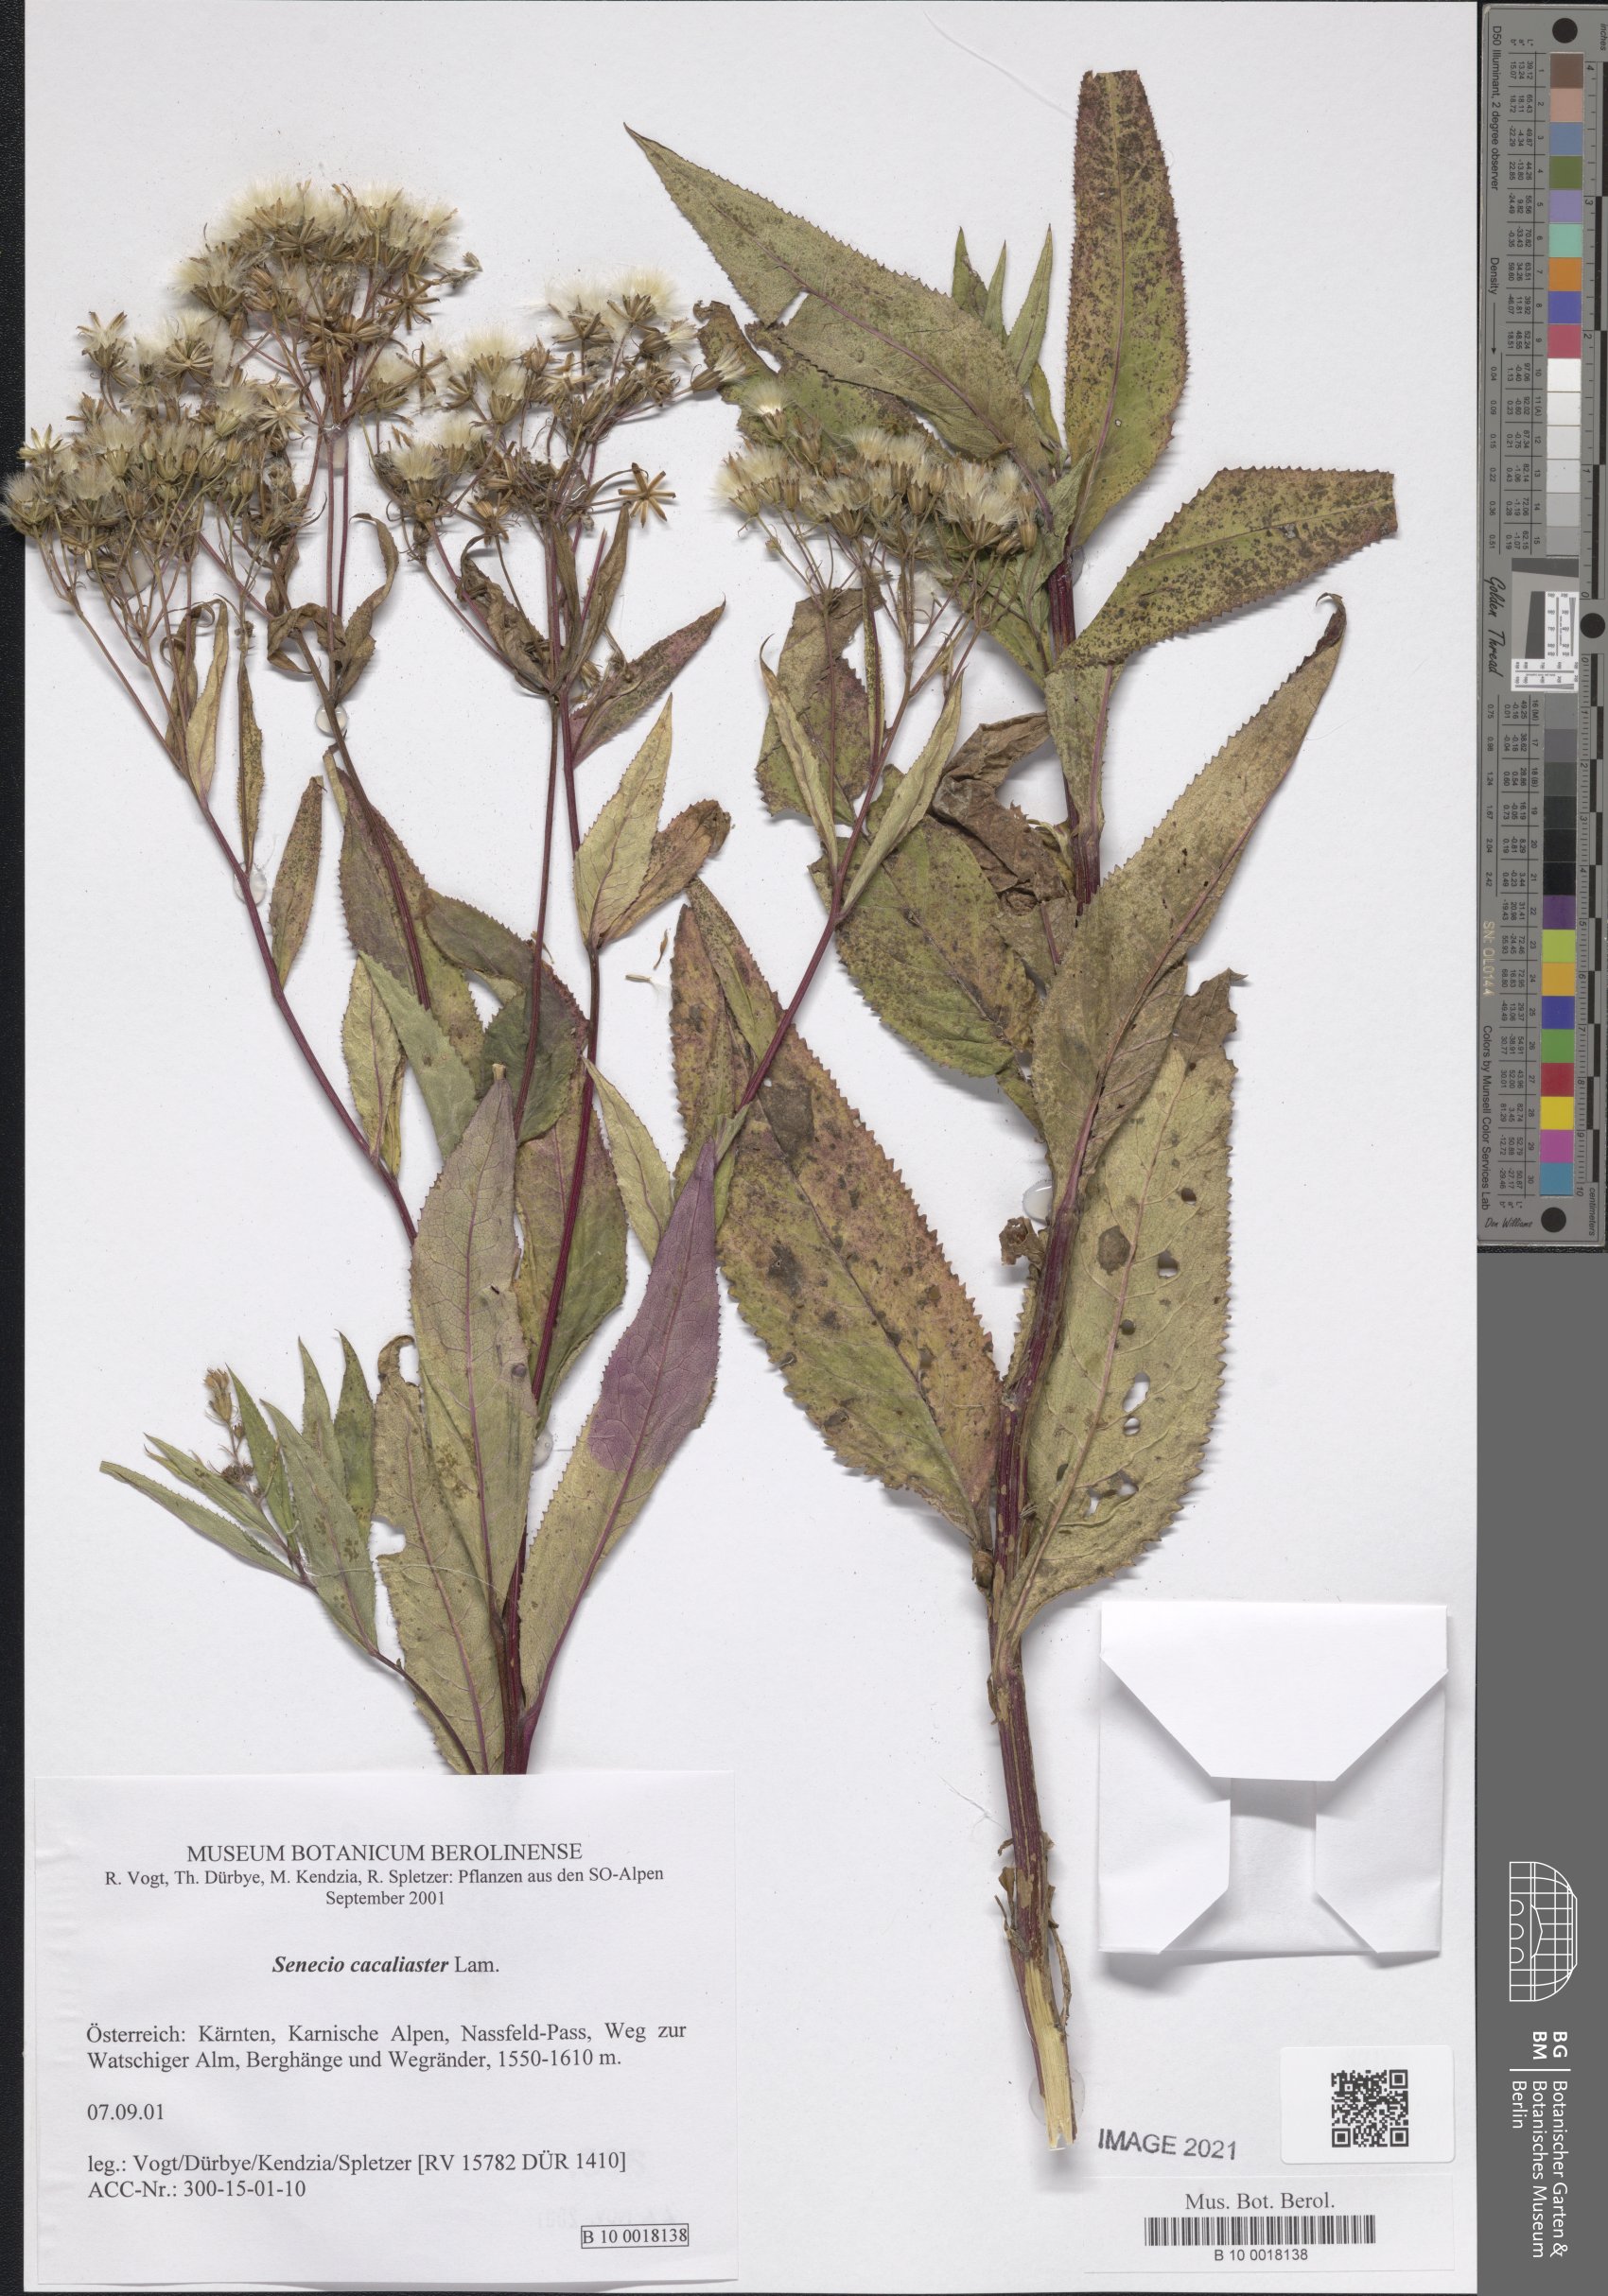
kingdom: Plantae
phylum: Tracheophyta
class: Magnoliopsida
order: Asterales
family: Asteraceae
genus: Senecio
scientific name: Senecio cacaliaster
